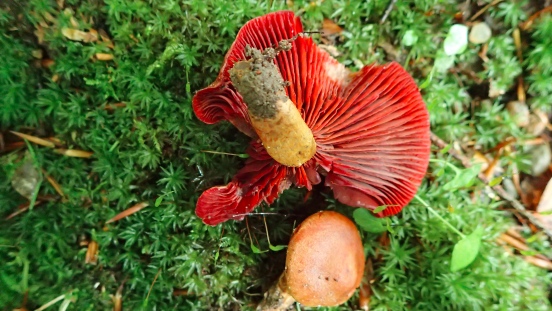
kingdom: Fungi
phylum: Basidiomycota
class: Agaricomycetes
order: Agaricales
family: Cortinariaceae
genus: Cortinarius
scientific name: Cortinarius
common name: cinnoberbladet slørhat
